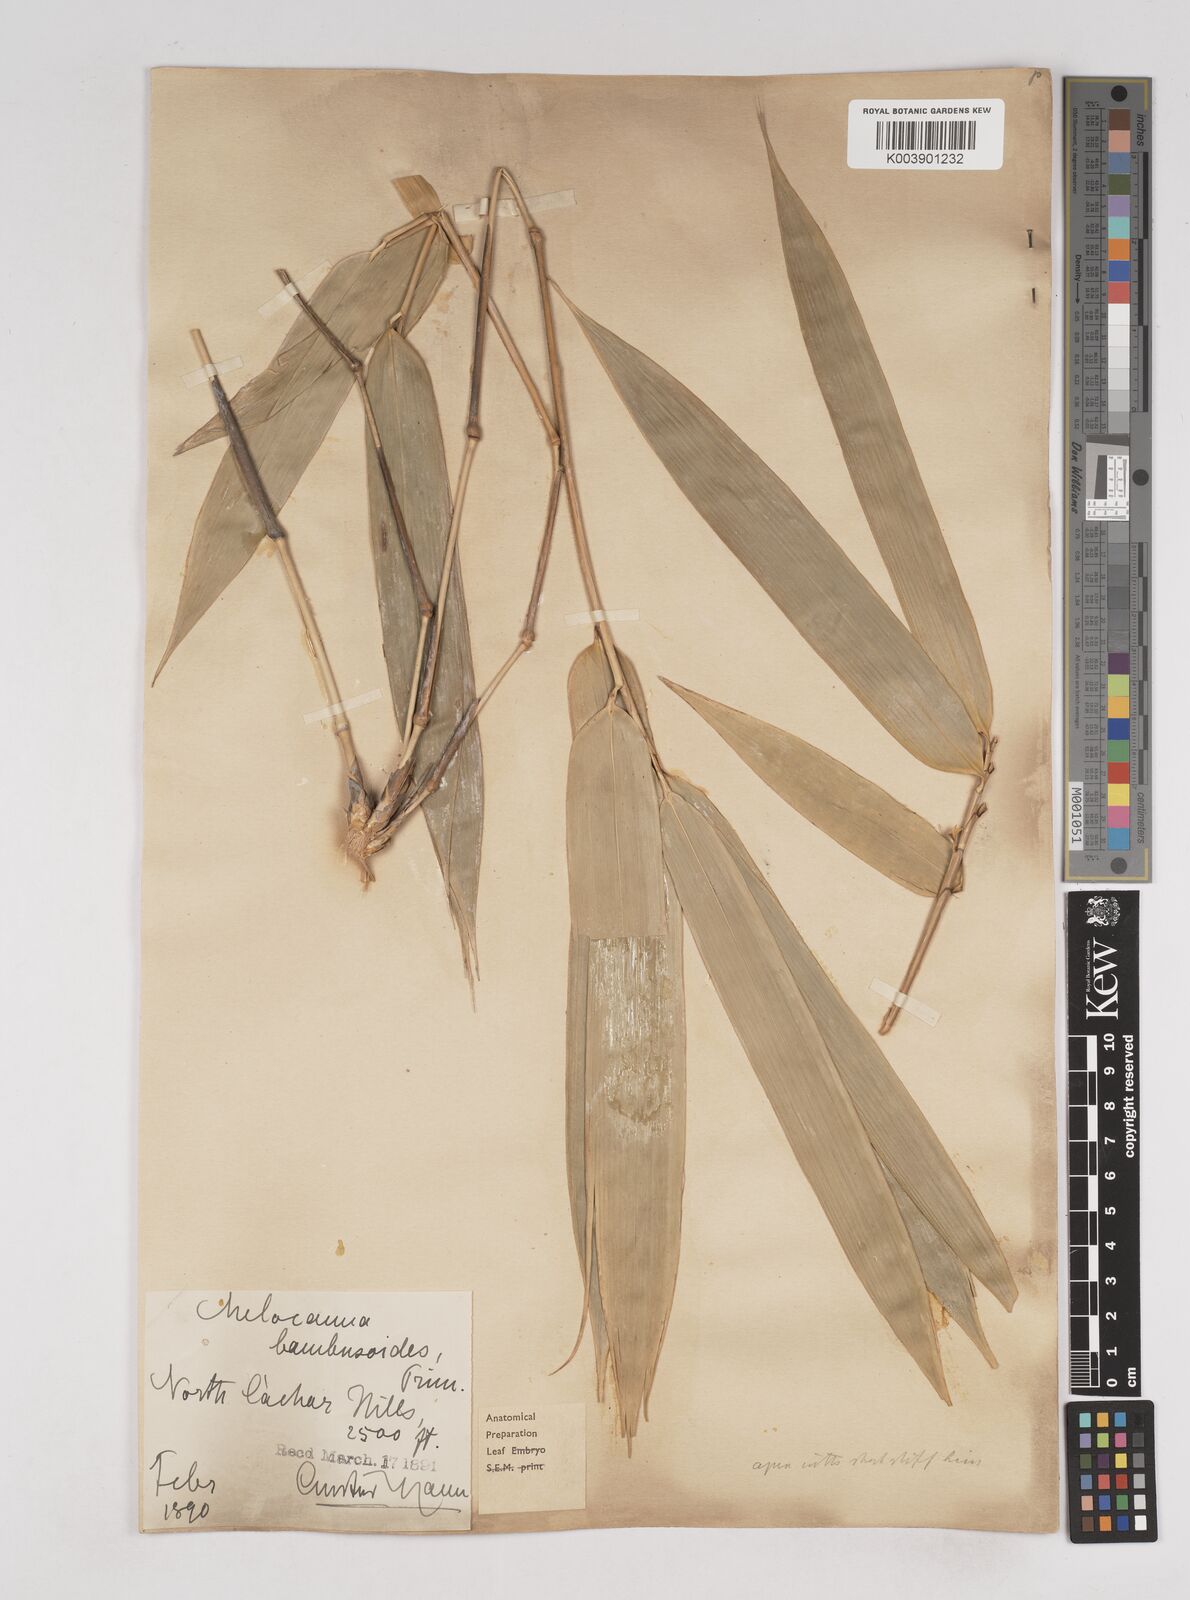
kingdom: Plantae
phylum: Tracheophyta
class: Liliopsida
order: Poales
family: Poaceae
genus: Melocanna
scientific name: Melocanna baccifera
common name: Berry bamboo
